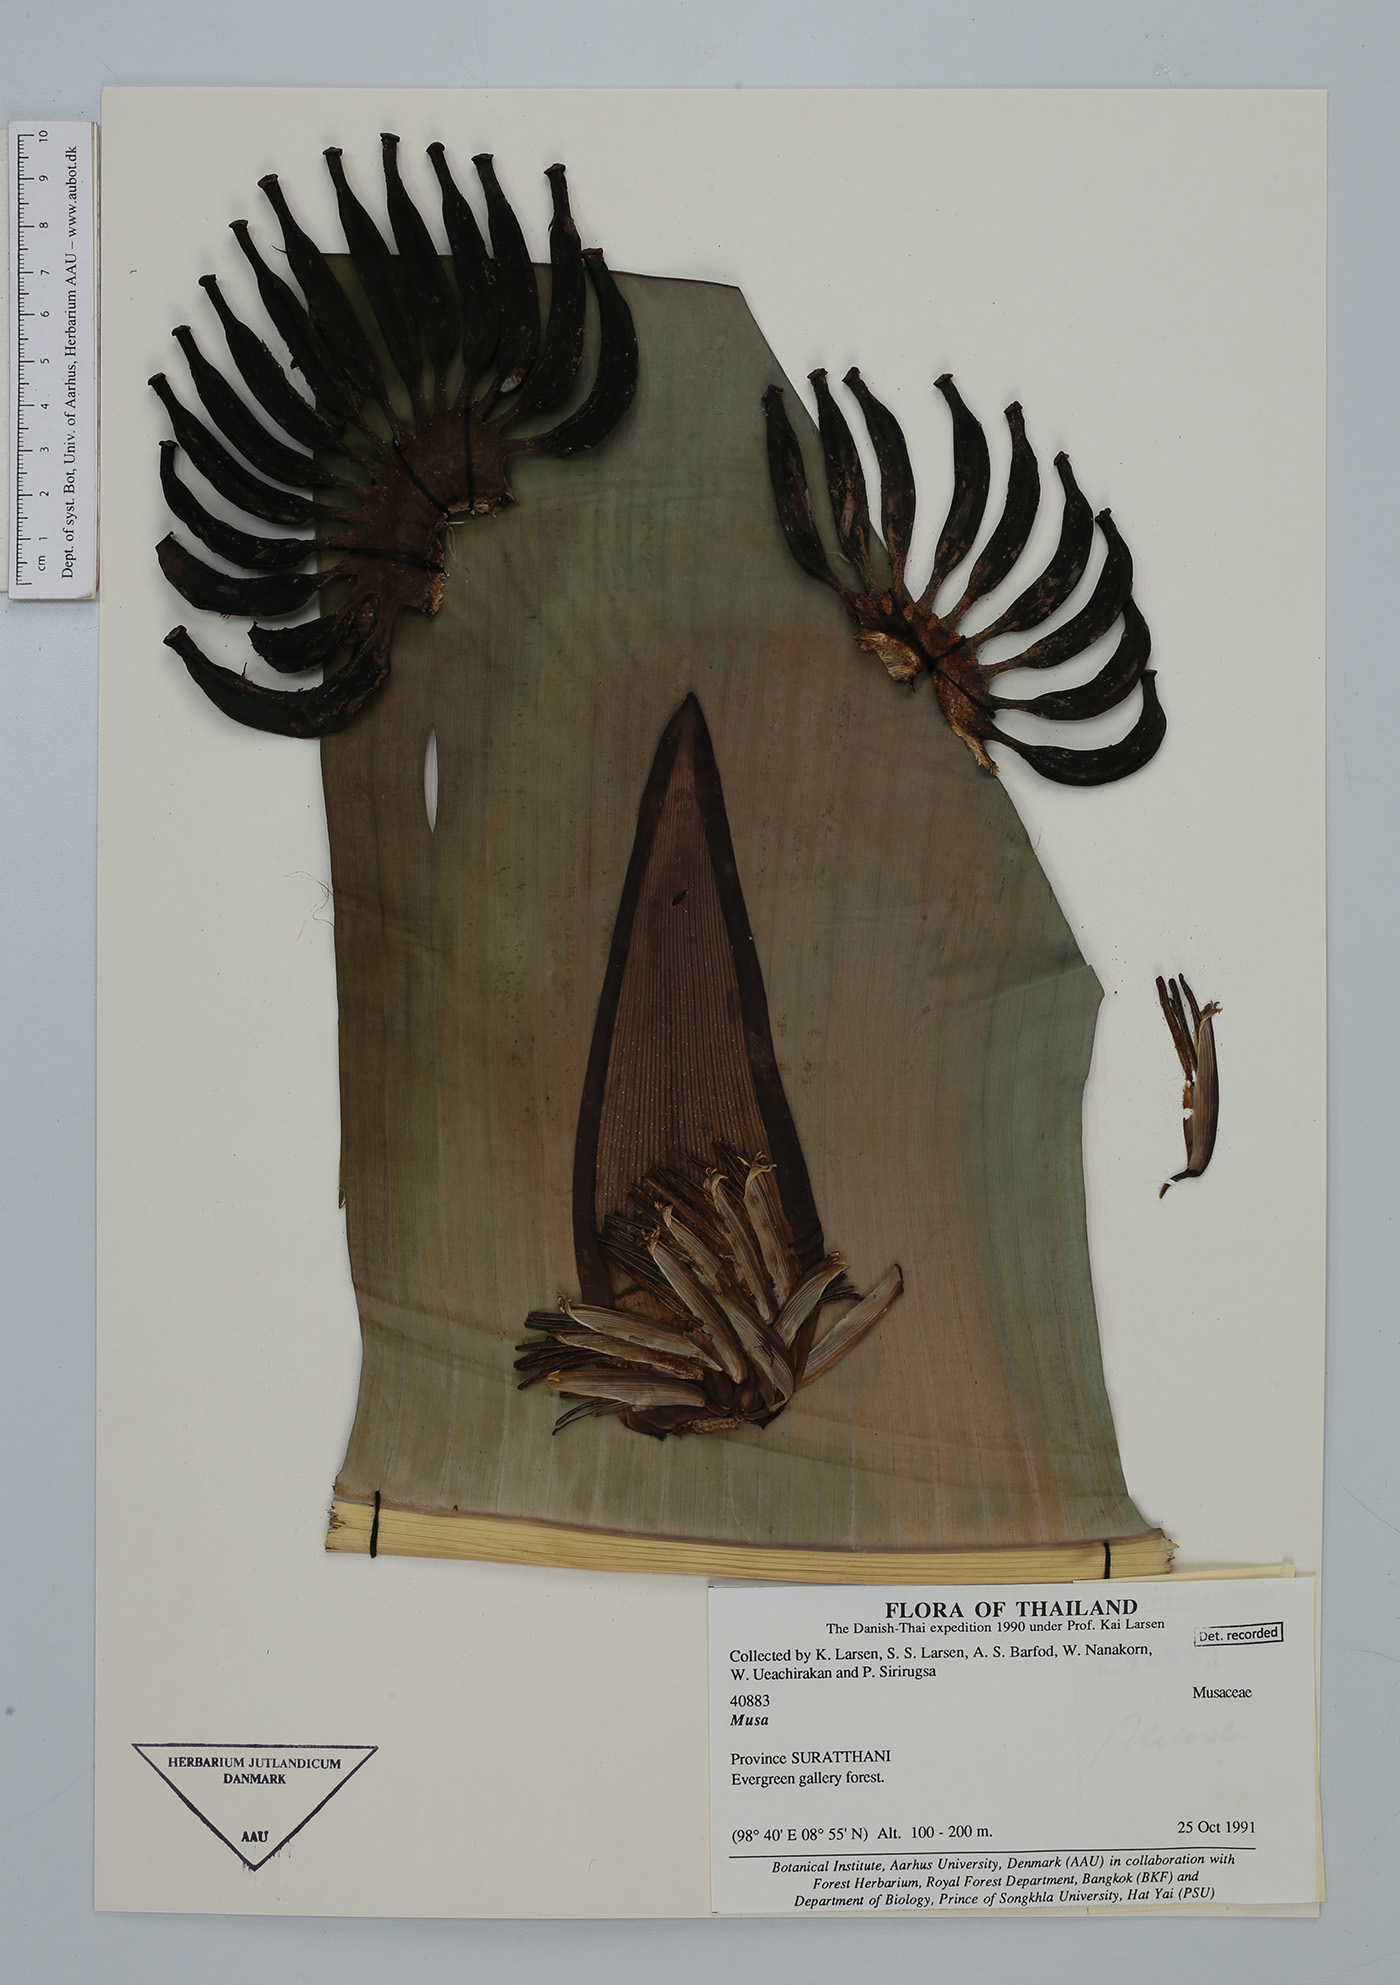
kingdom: Plantae
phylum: Tracheophyta
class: Liliopsida
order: Zingiberales
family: Musaceae
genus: Musa
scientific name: Musa
